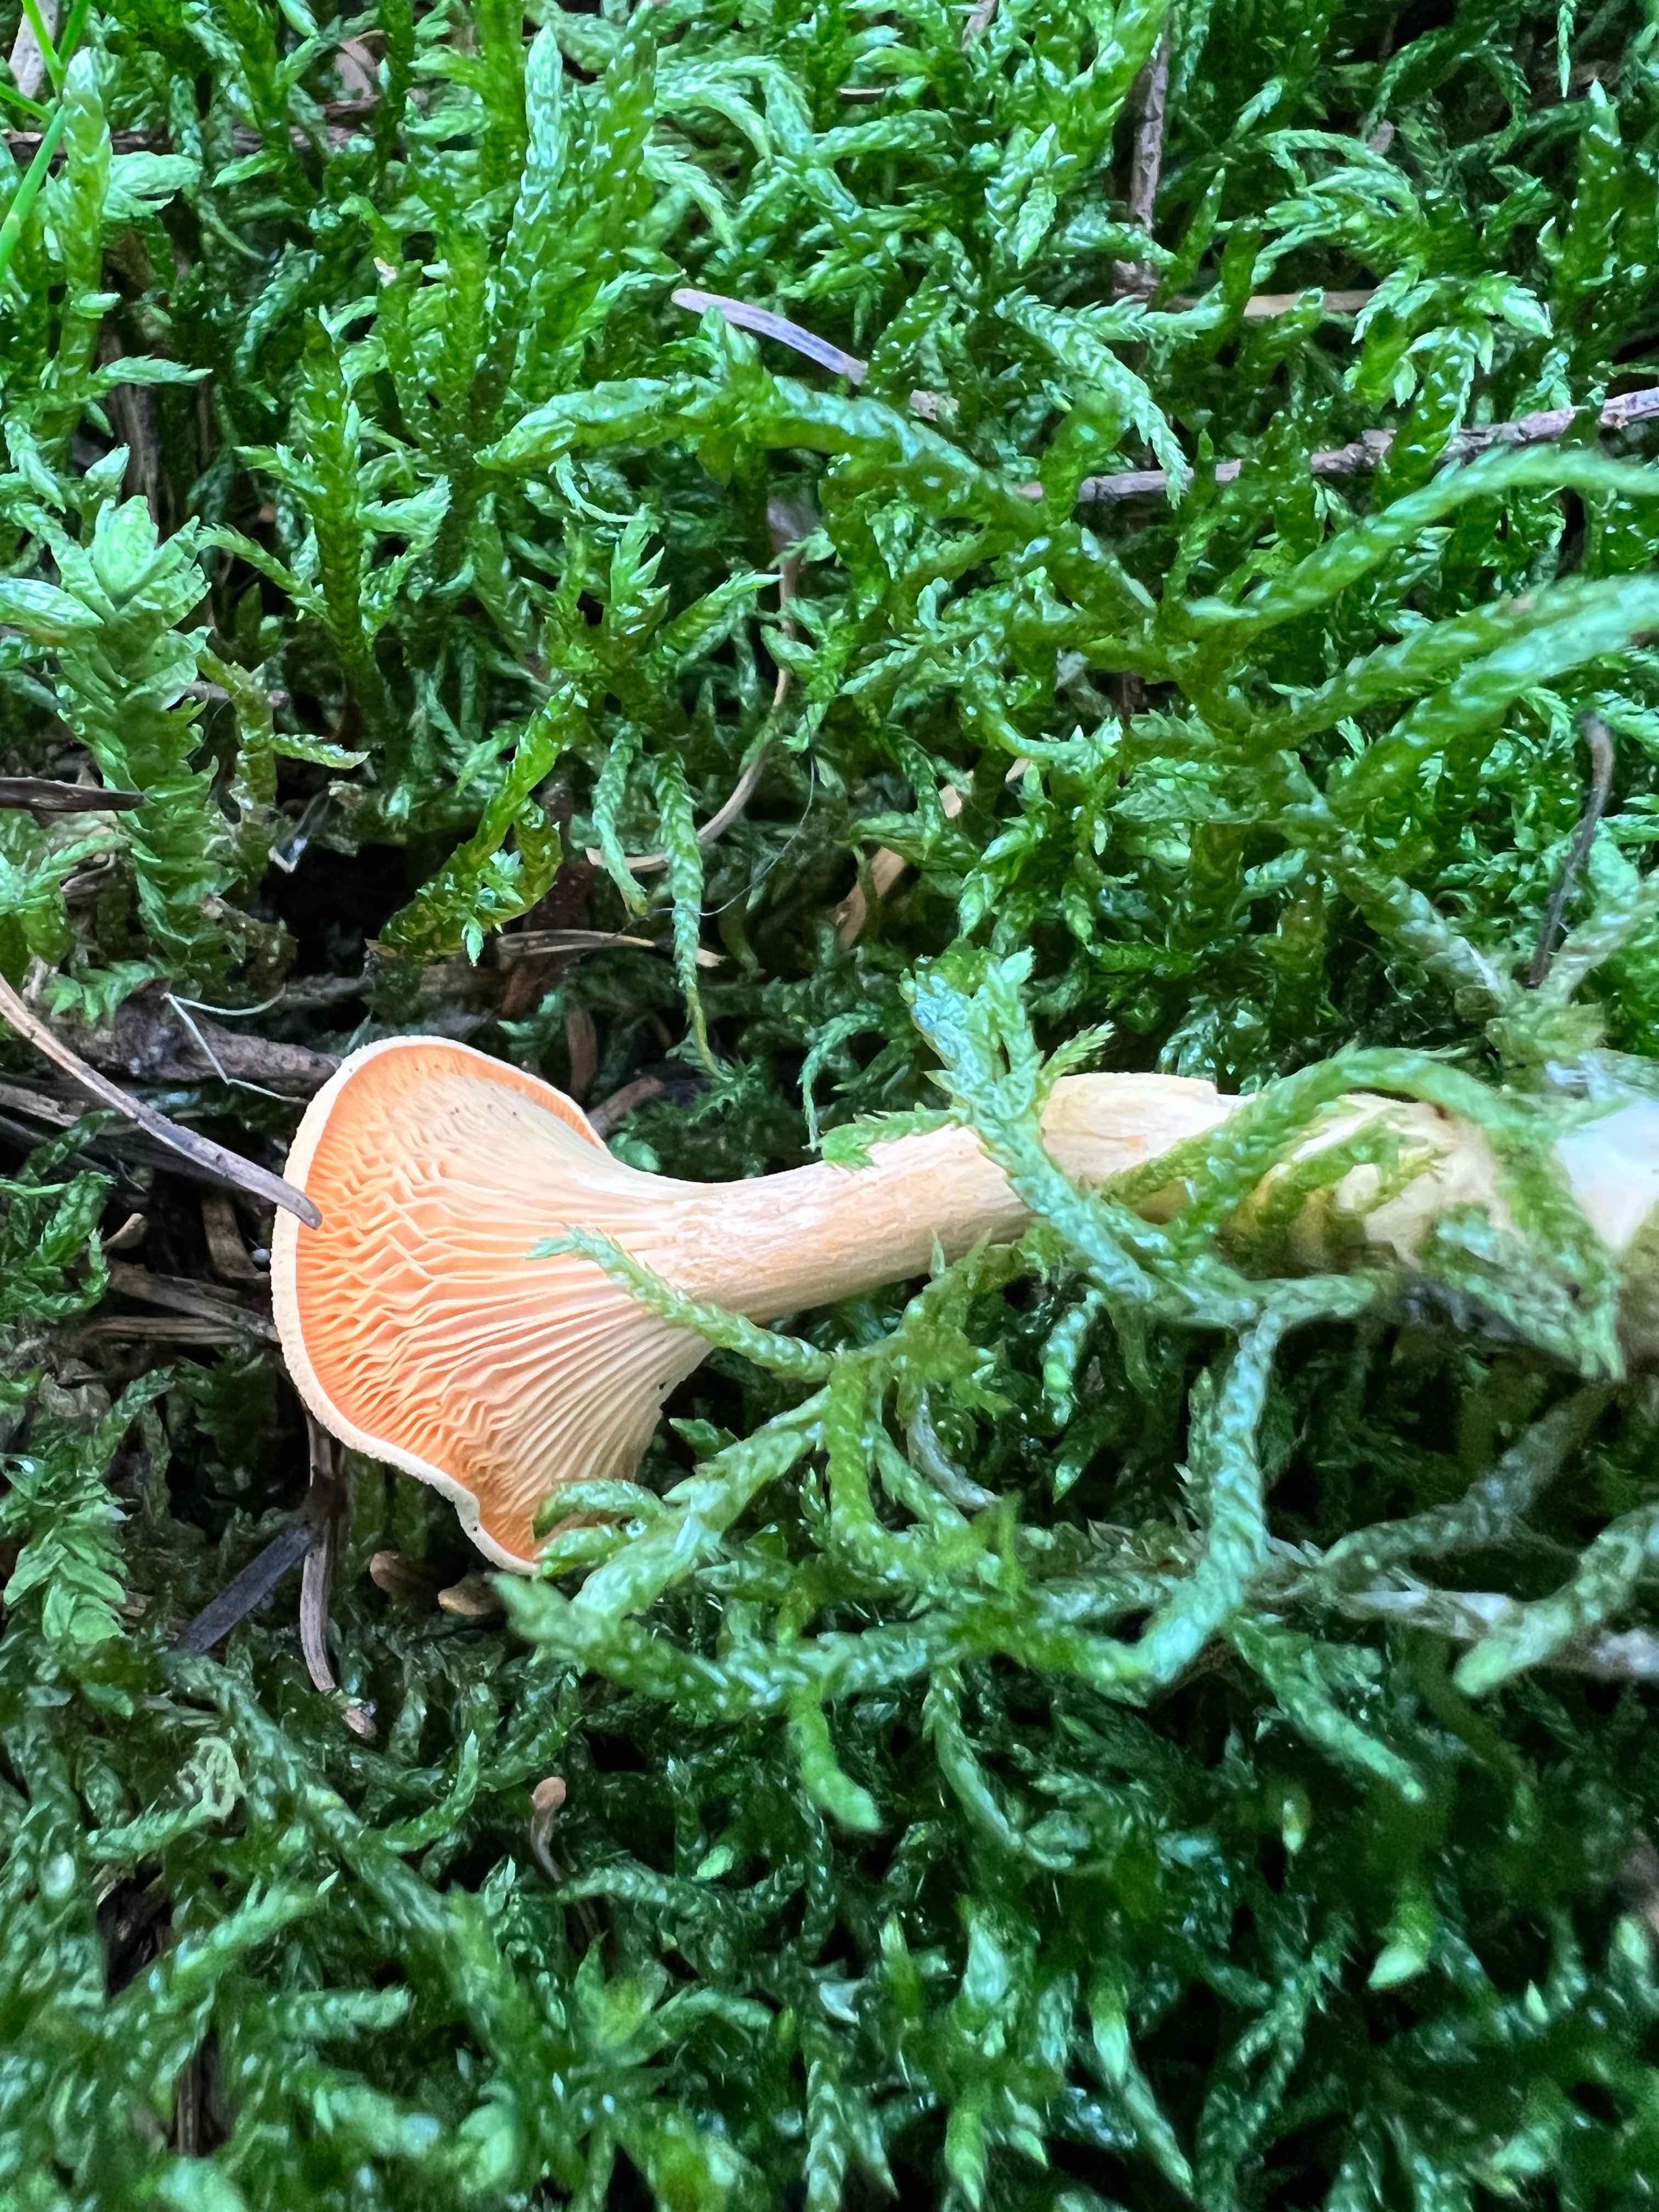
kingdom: Fungi
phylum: Basidiomycota
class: Agaricomycetes
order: Boletales
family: Hygrophoropsidaceae
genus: Hygrophoropsis
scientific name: Hygrophoropsis aurantiaca
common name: almindelig orangekantarel
